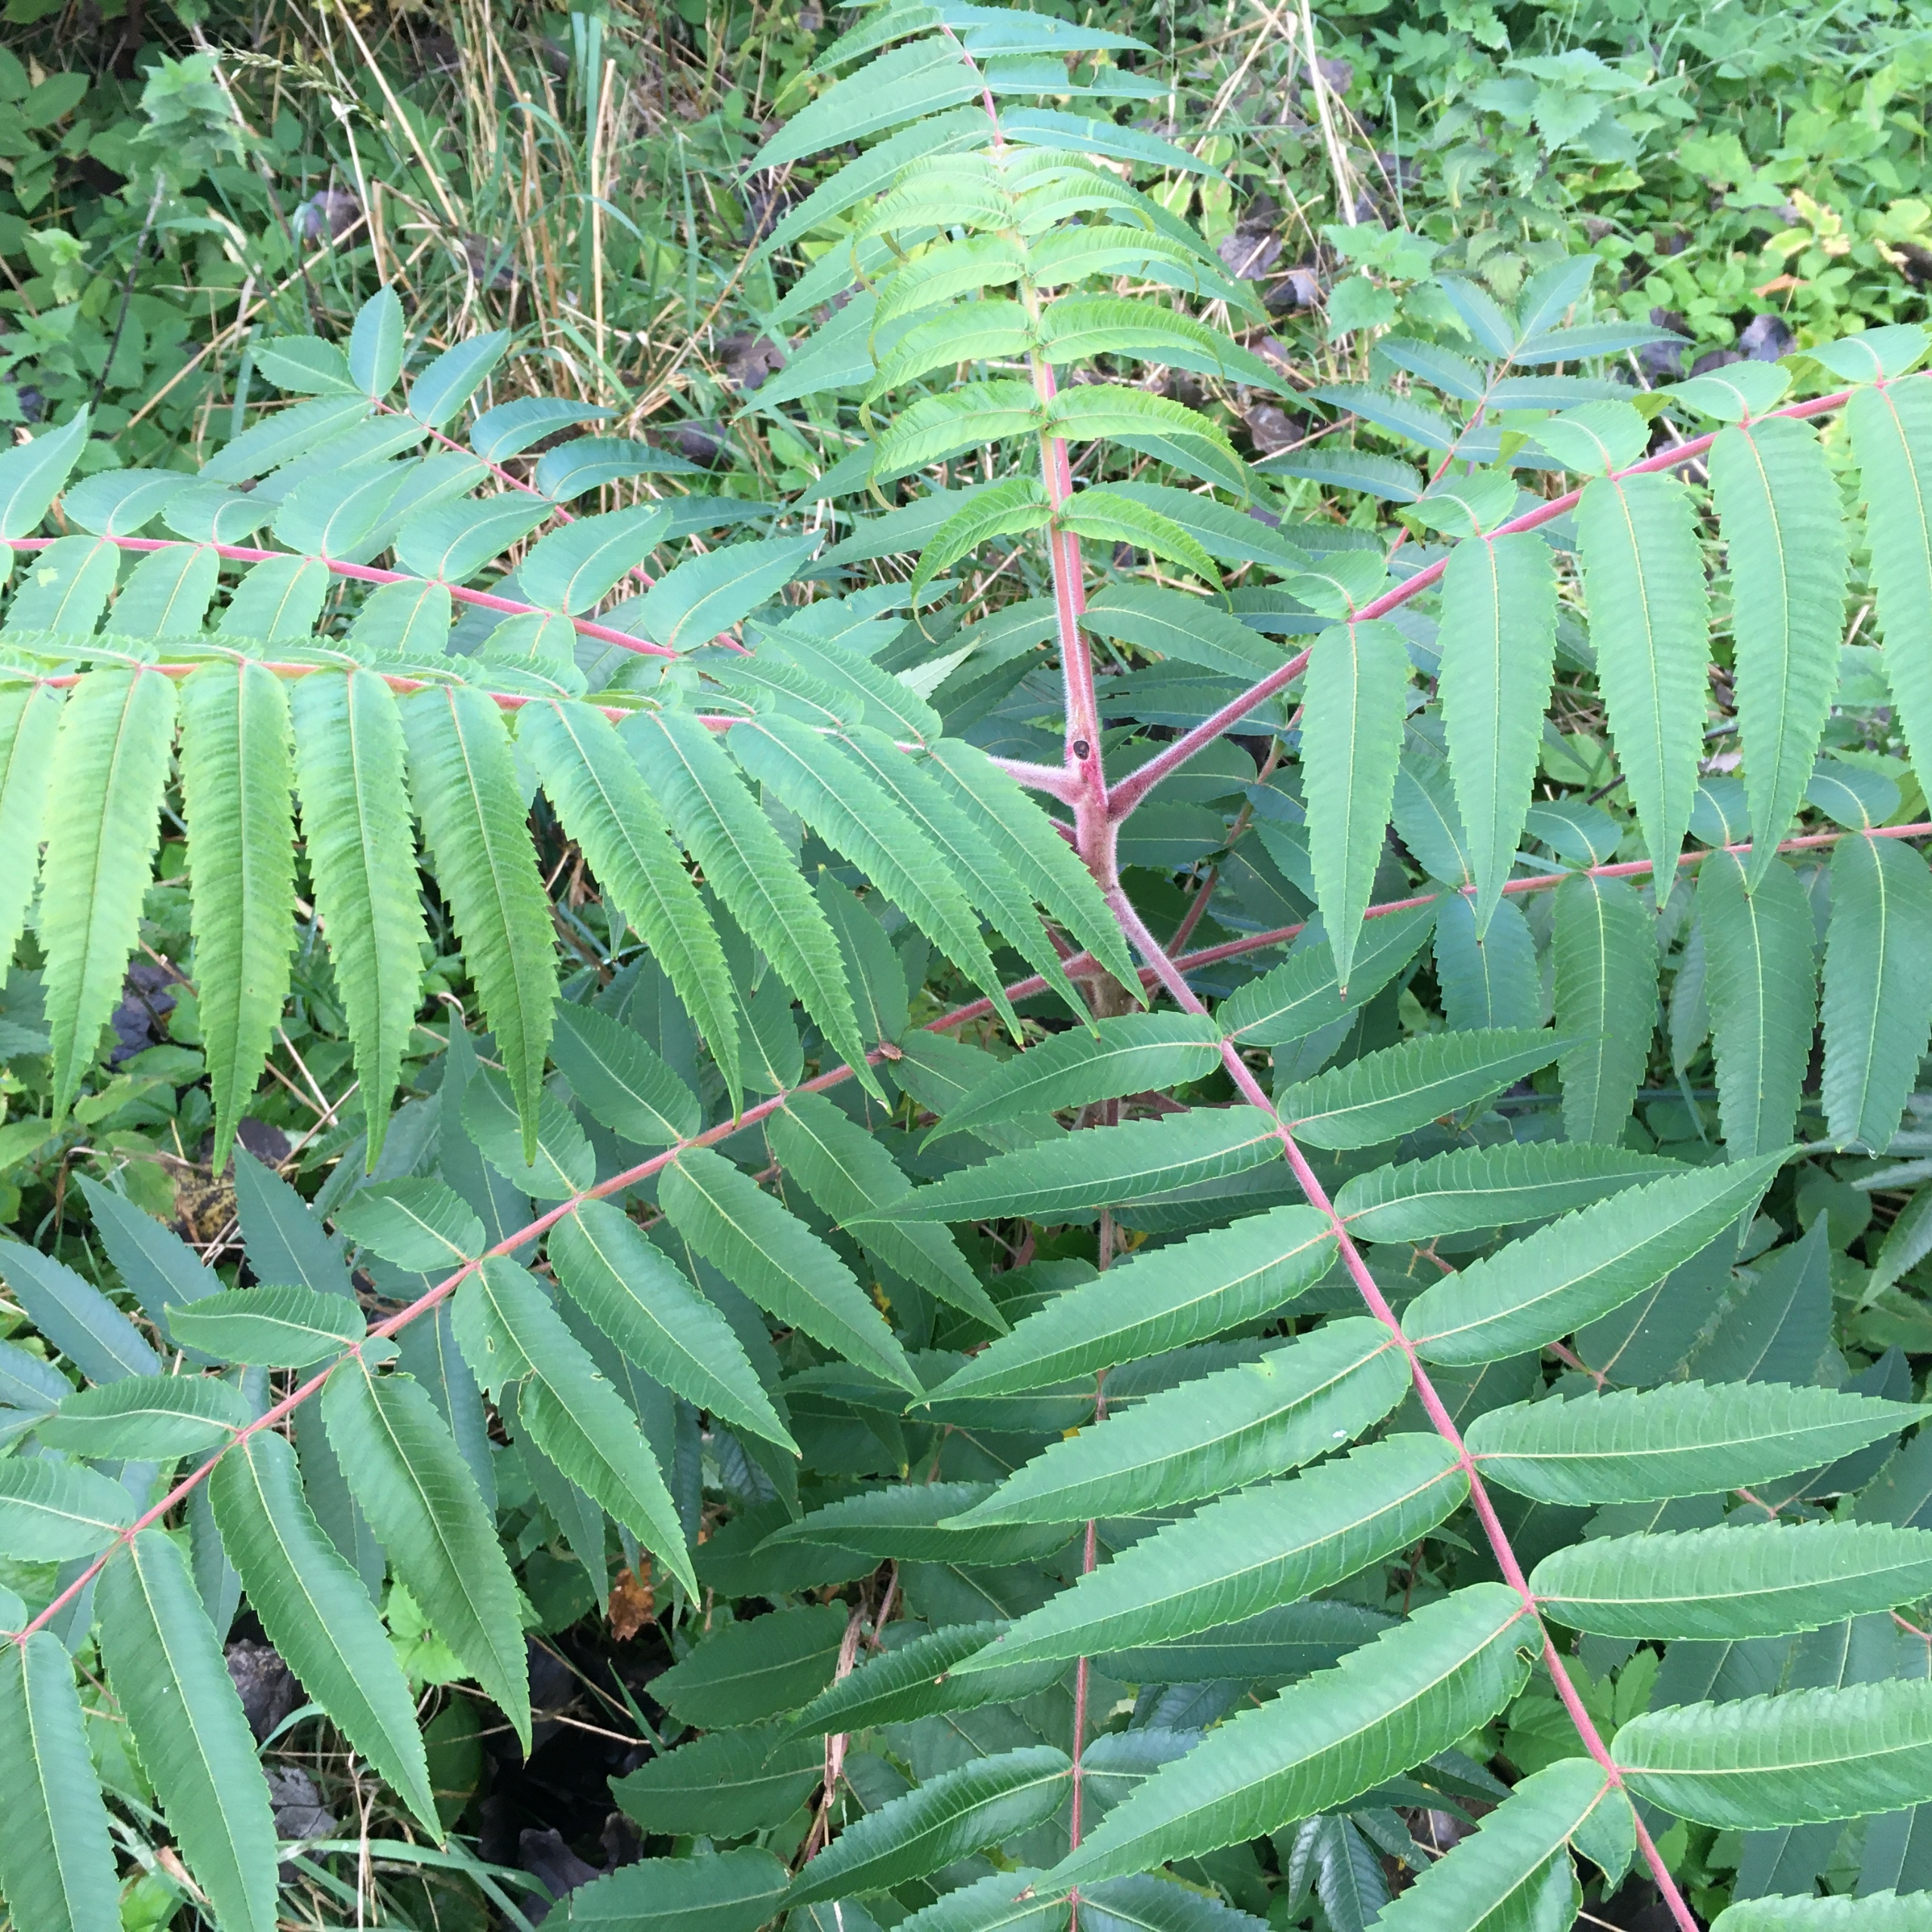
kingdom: Plantae
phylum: Tracheophyta
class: Magnoliopsida
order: Sapindales
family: Anacardiaceae
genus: Rhus
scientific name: Rhus typhina
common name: Hjortetaktræ
